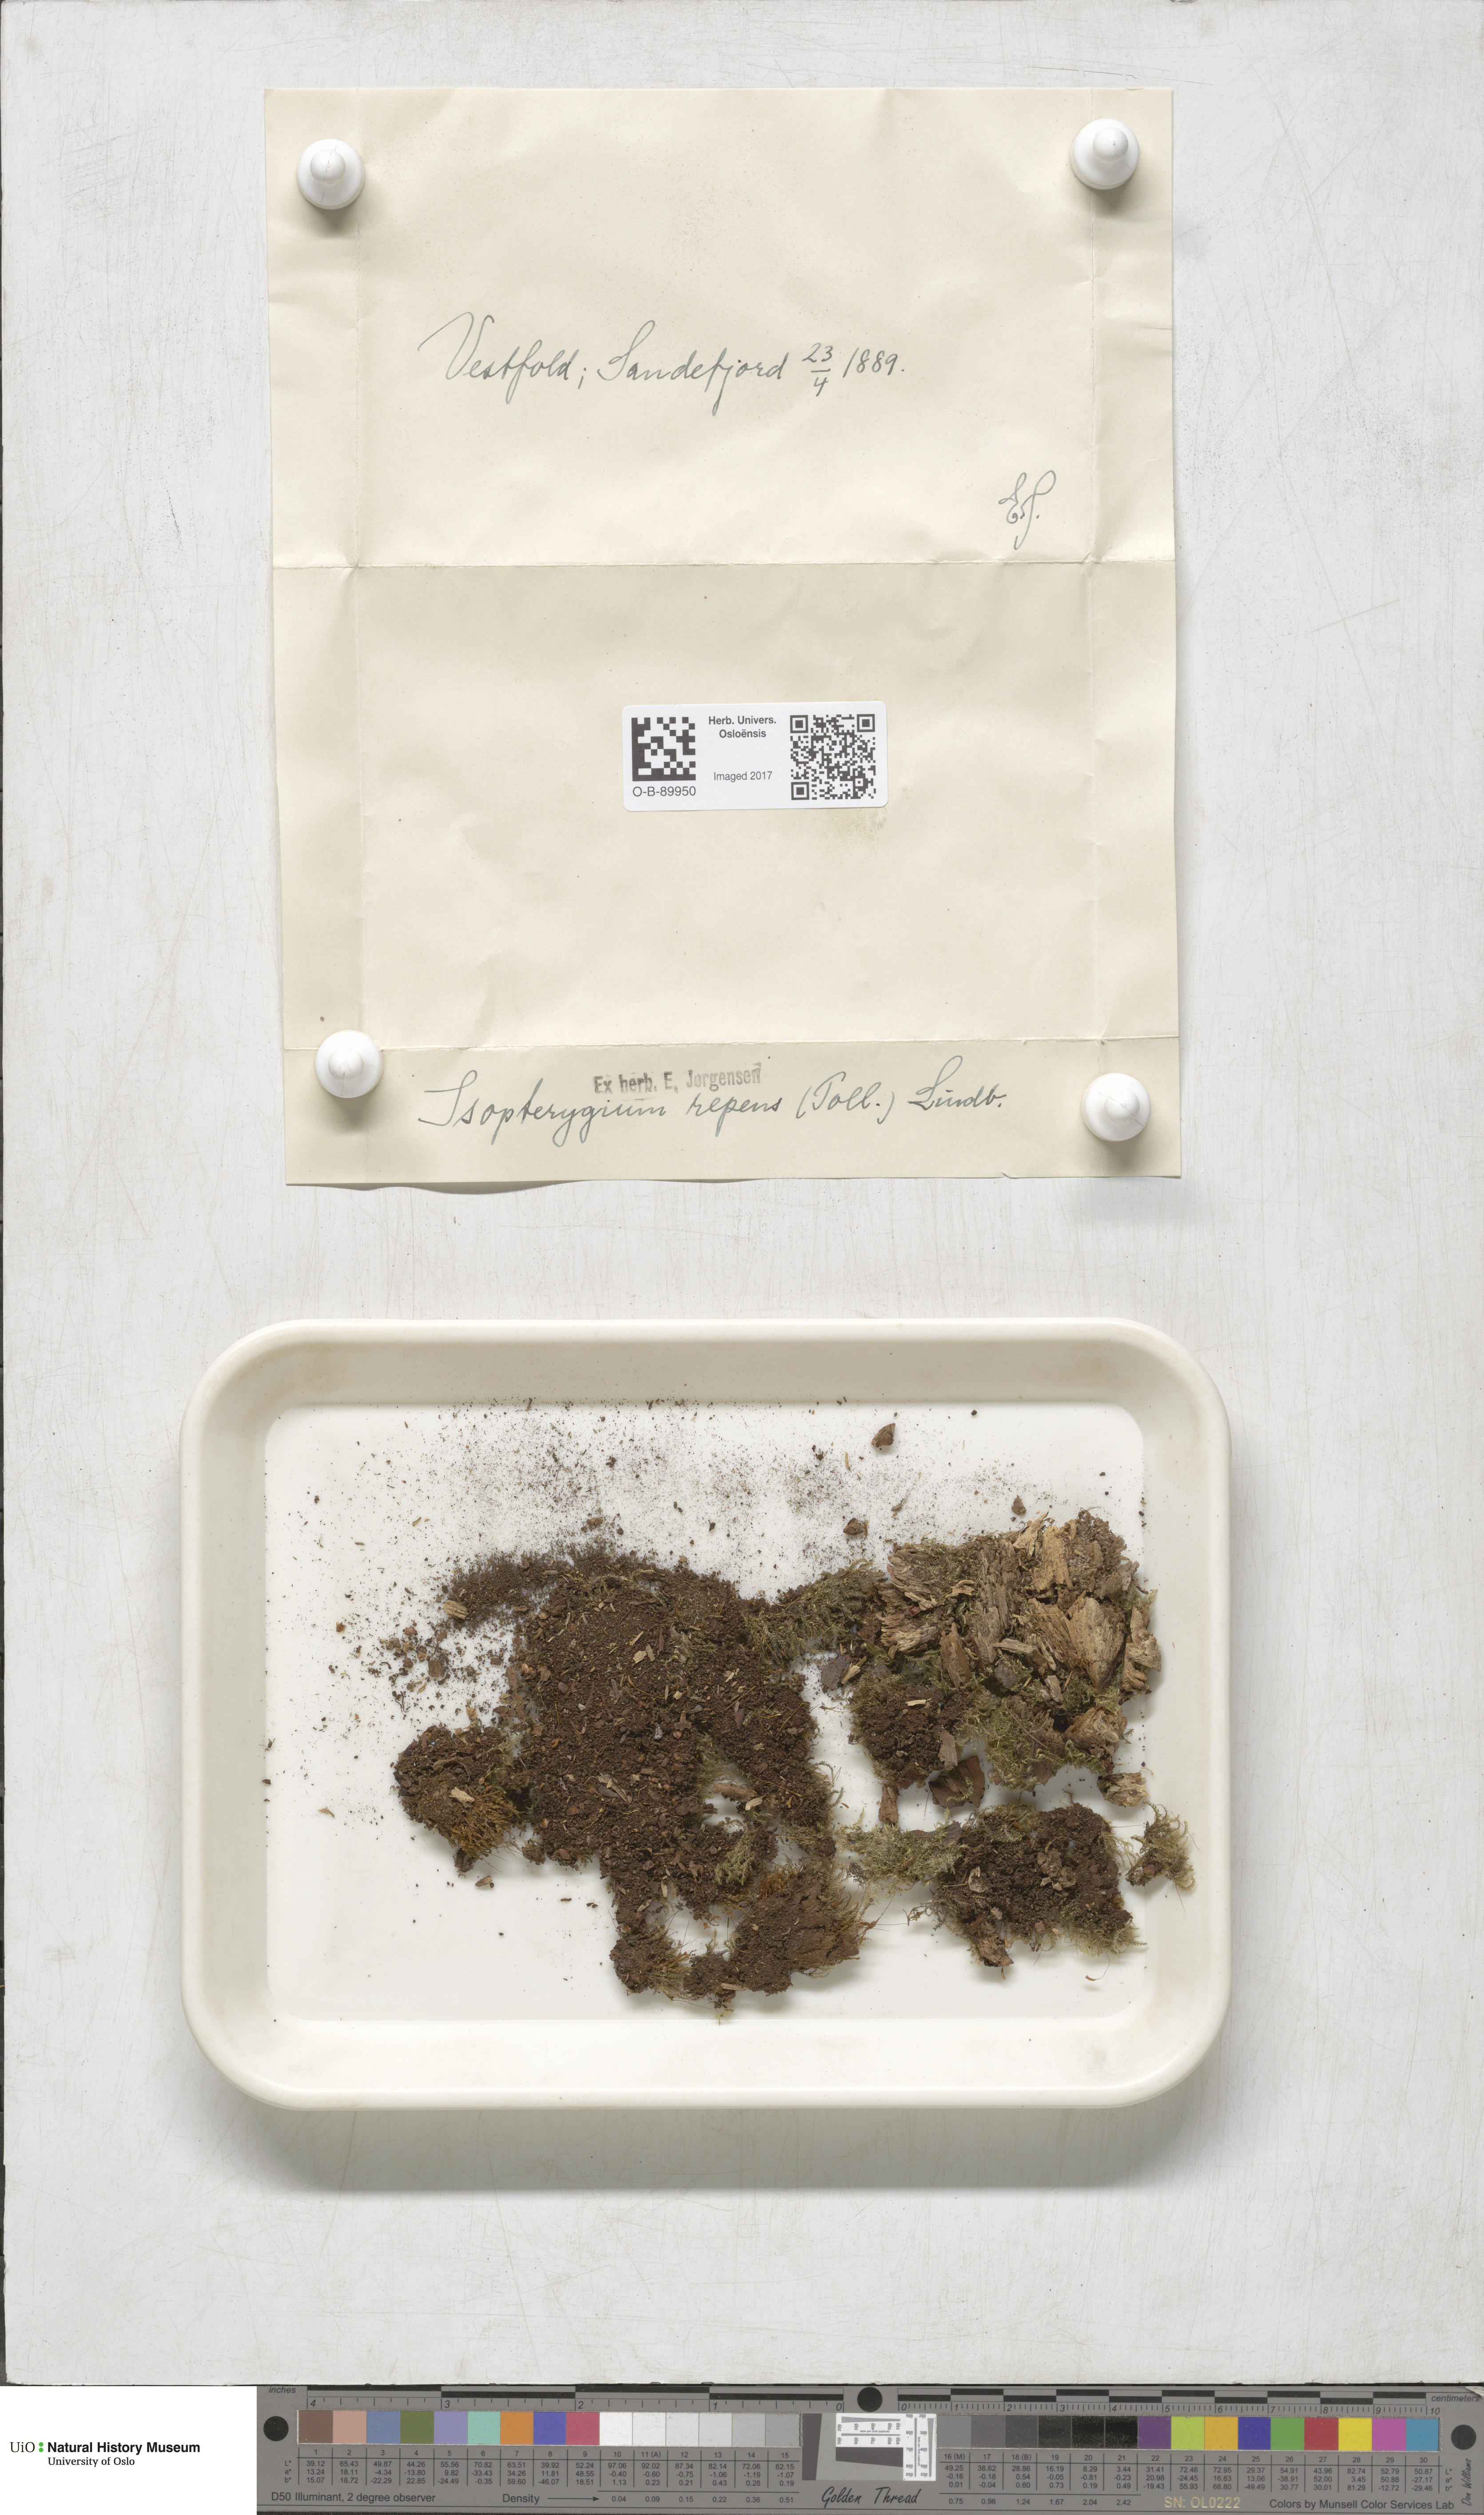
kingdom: Plantae
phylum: Bryophyta
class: Bryopsida
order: Hypnales
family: Plagiotheciaceae
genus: Herzogiella
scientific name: Herzogiella seligeri
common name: Silesian feather-moss
